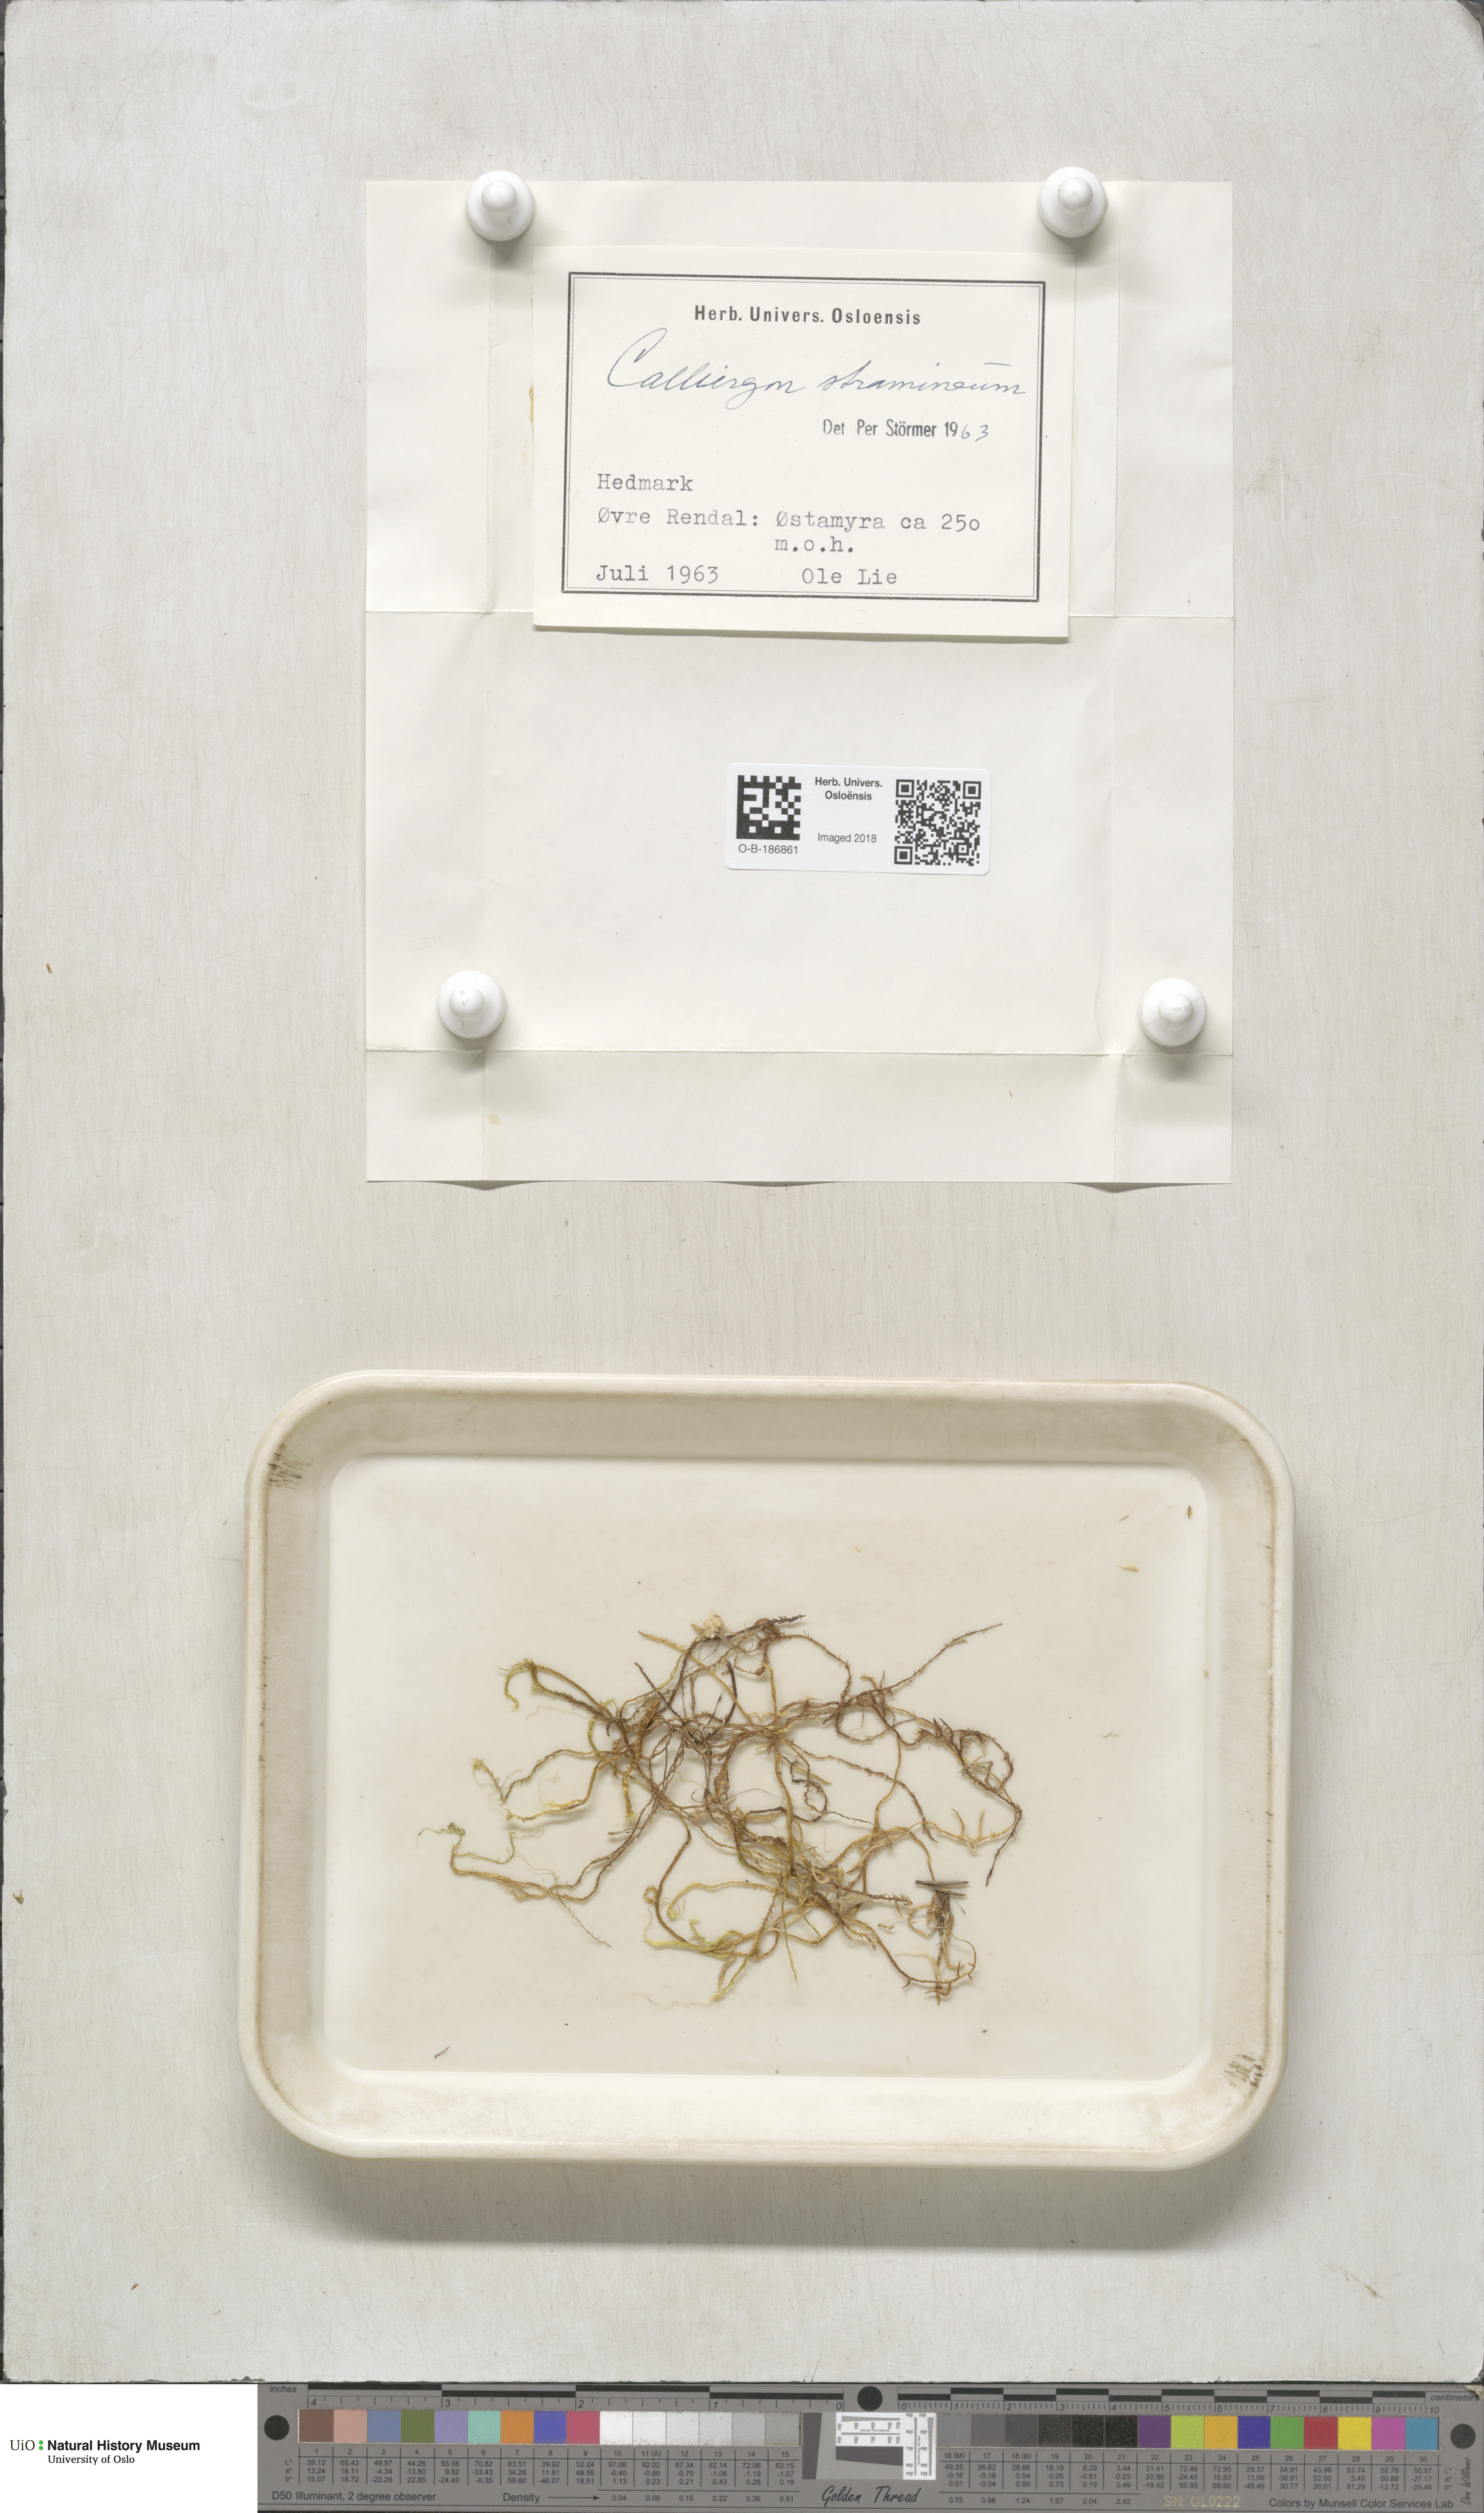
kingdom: Plantae
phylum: Bryophyta
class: Bryopsida
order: Hypnales
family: Calliergonaceae
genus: Straminergon
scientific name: Straminergon stramineum
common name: Straw moss
